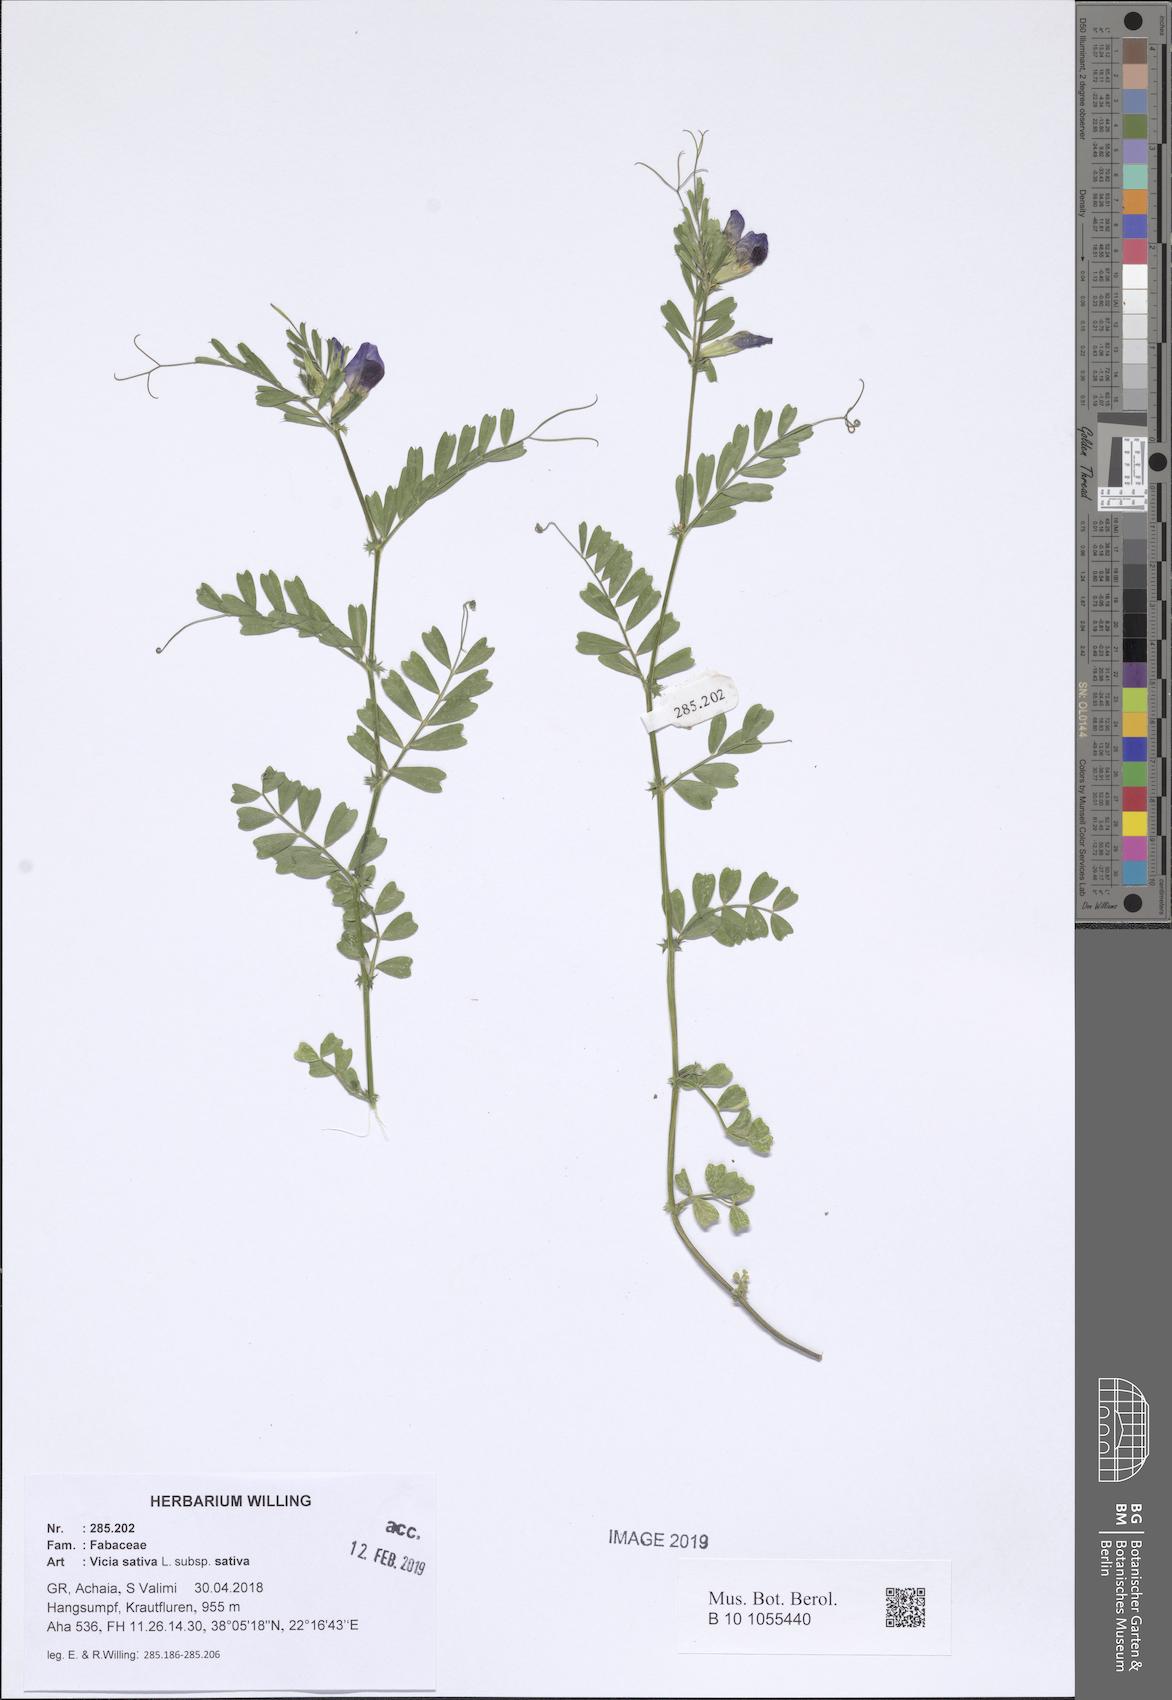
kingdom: Plantae
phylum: Tracheophyta
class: Magnoliopsida
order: Fabales
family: Fabaceae
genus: Vicia
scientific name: Vicia sativa
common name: Garden vetch
